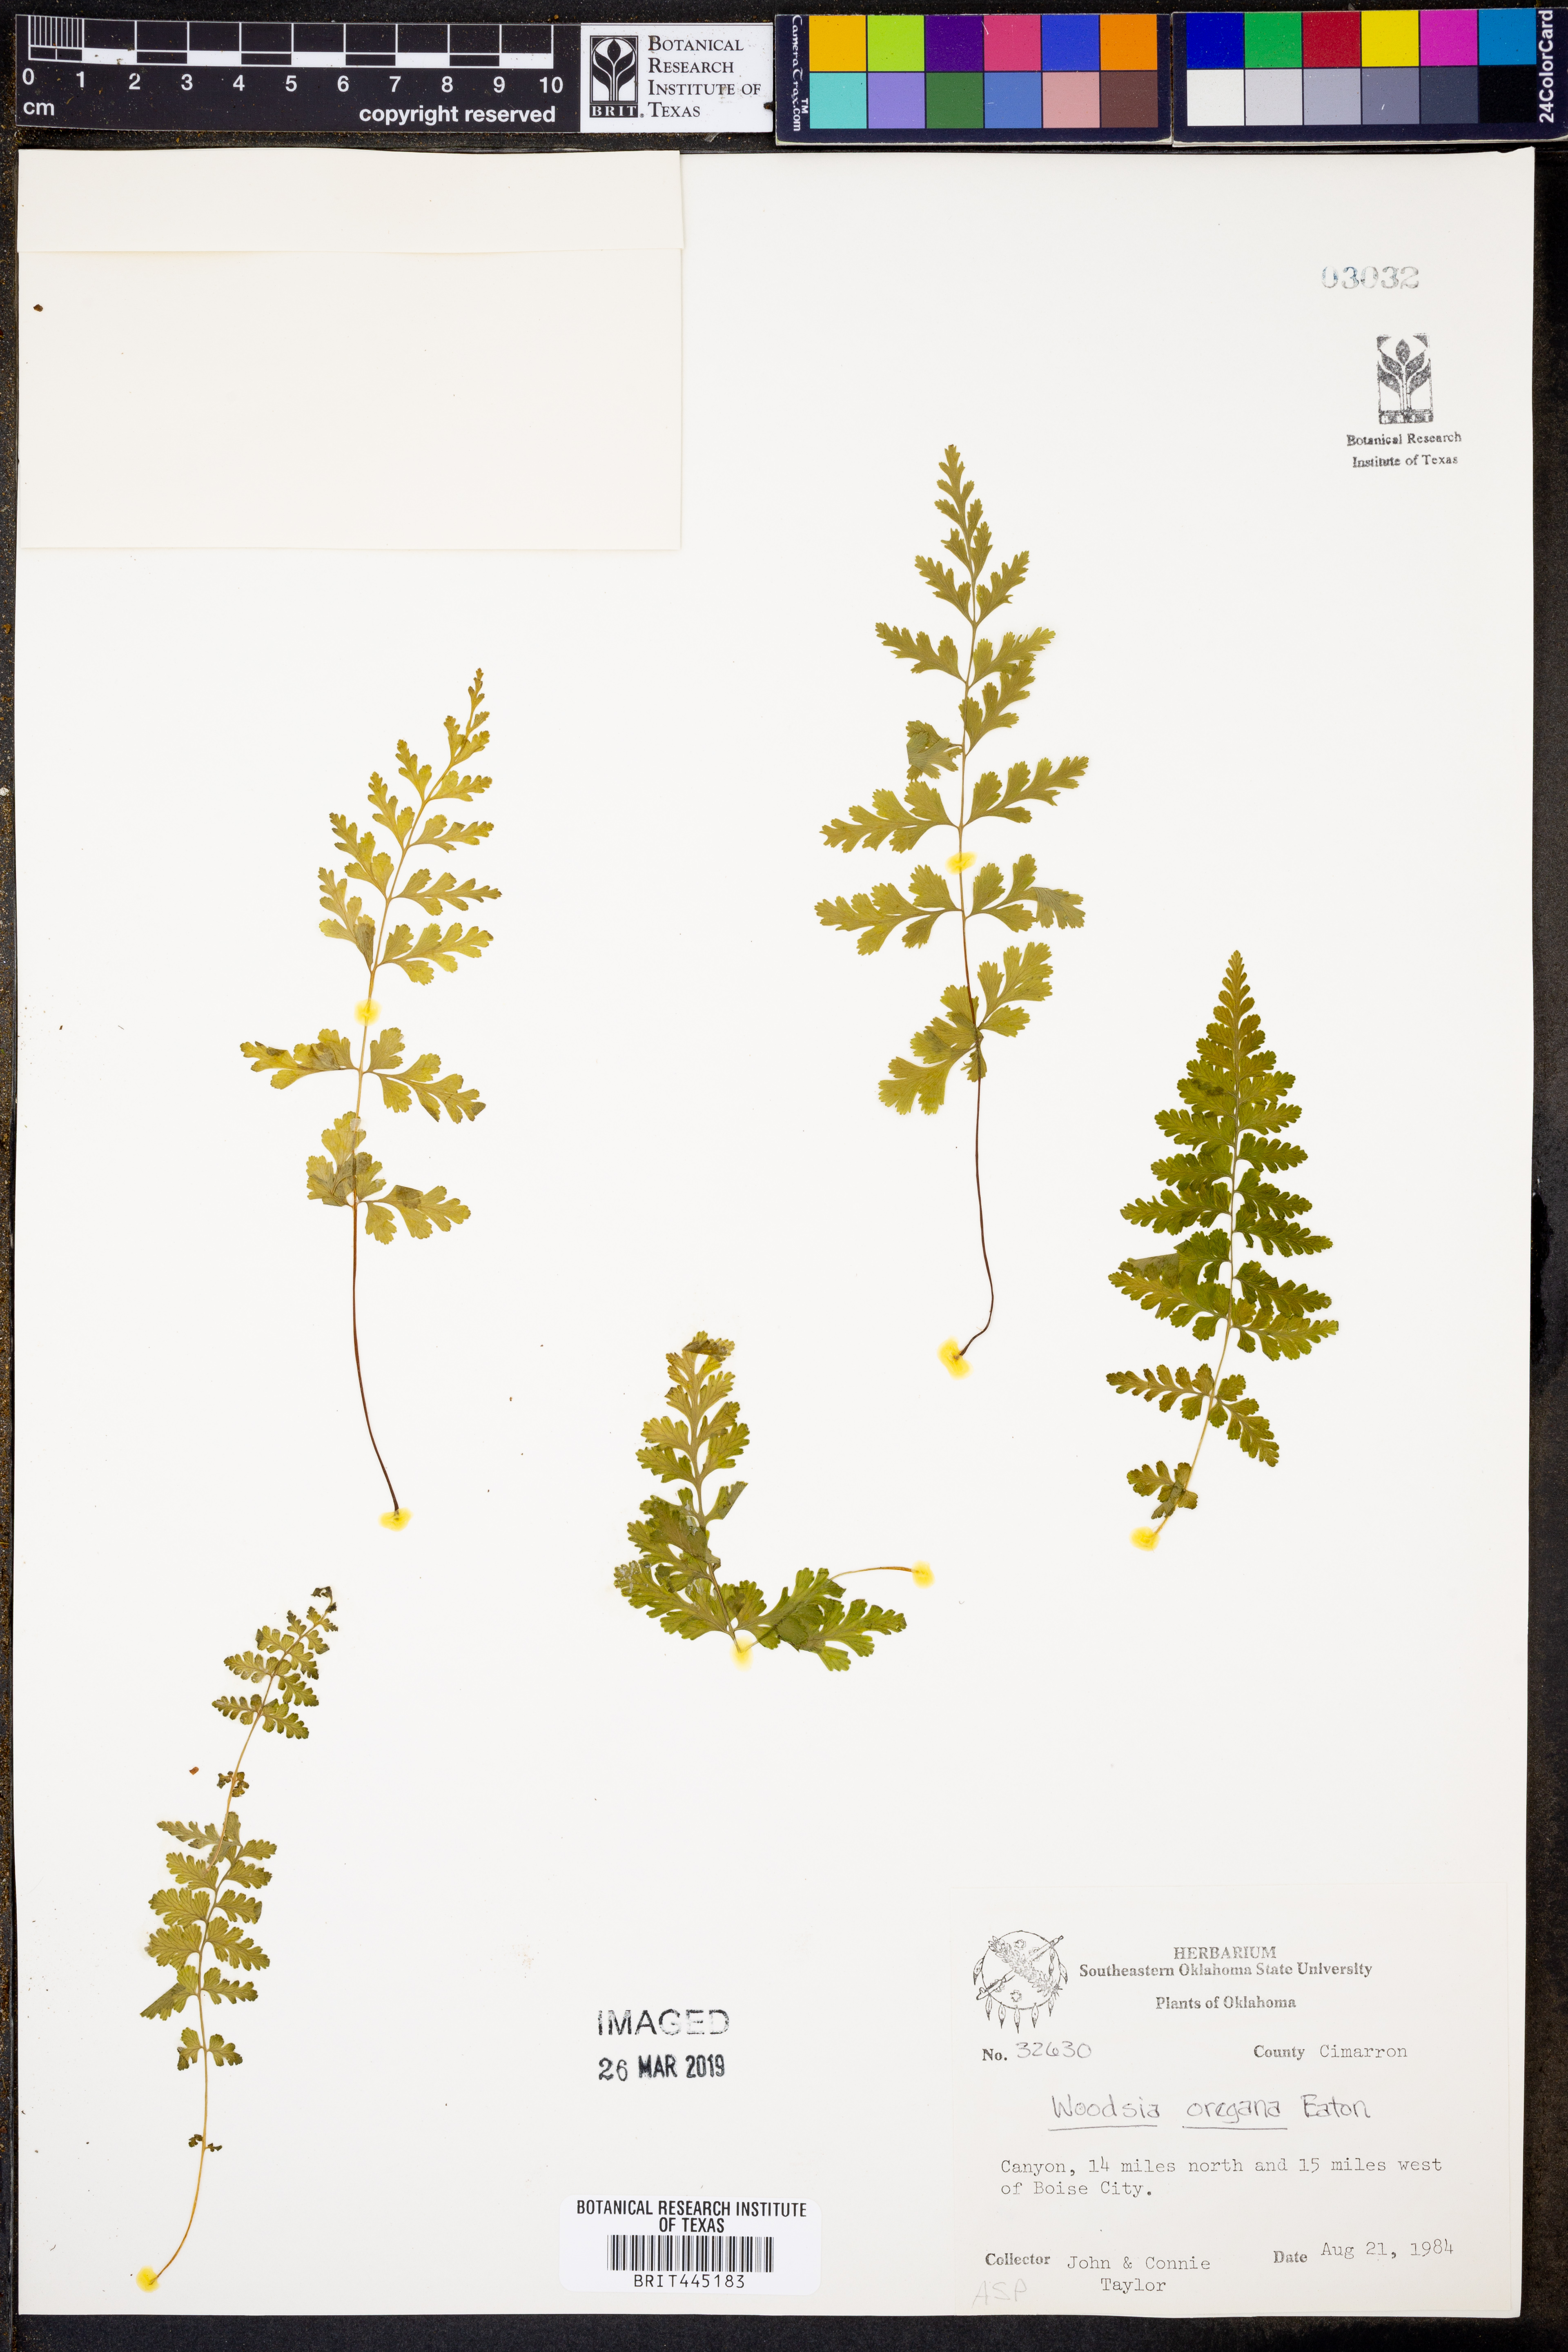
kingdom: Plantae
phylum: Tracheophyta
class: Polypodiopsida
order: Polypodiales
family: Woodsiaceae
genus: Physematium
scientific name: Physematium oreganum
